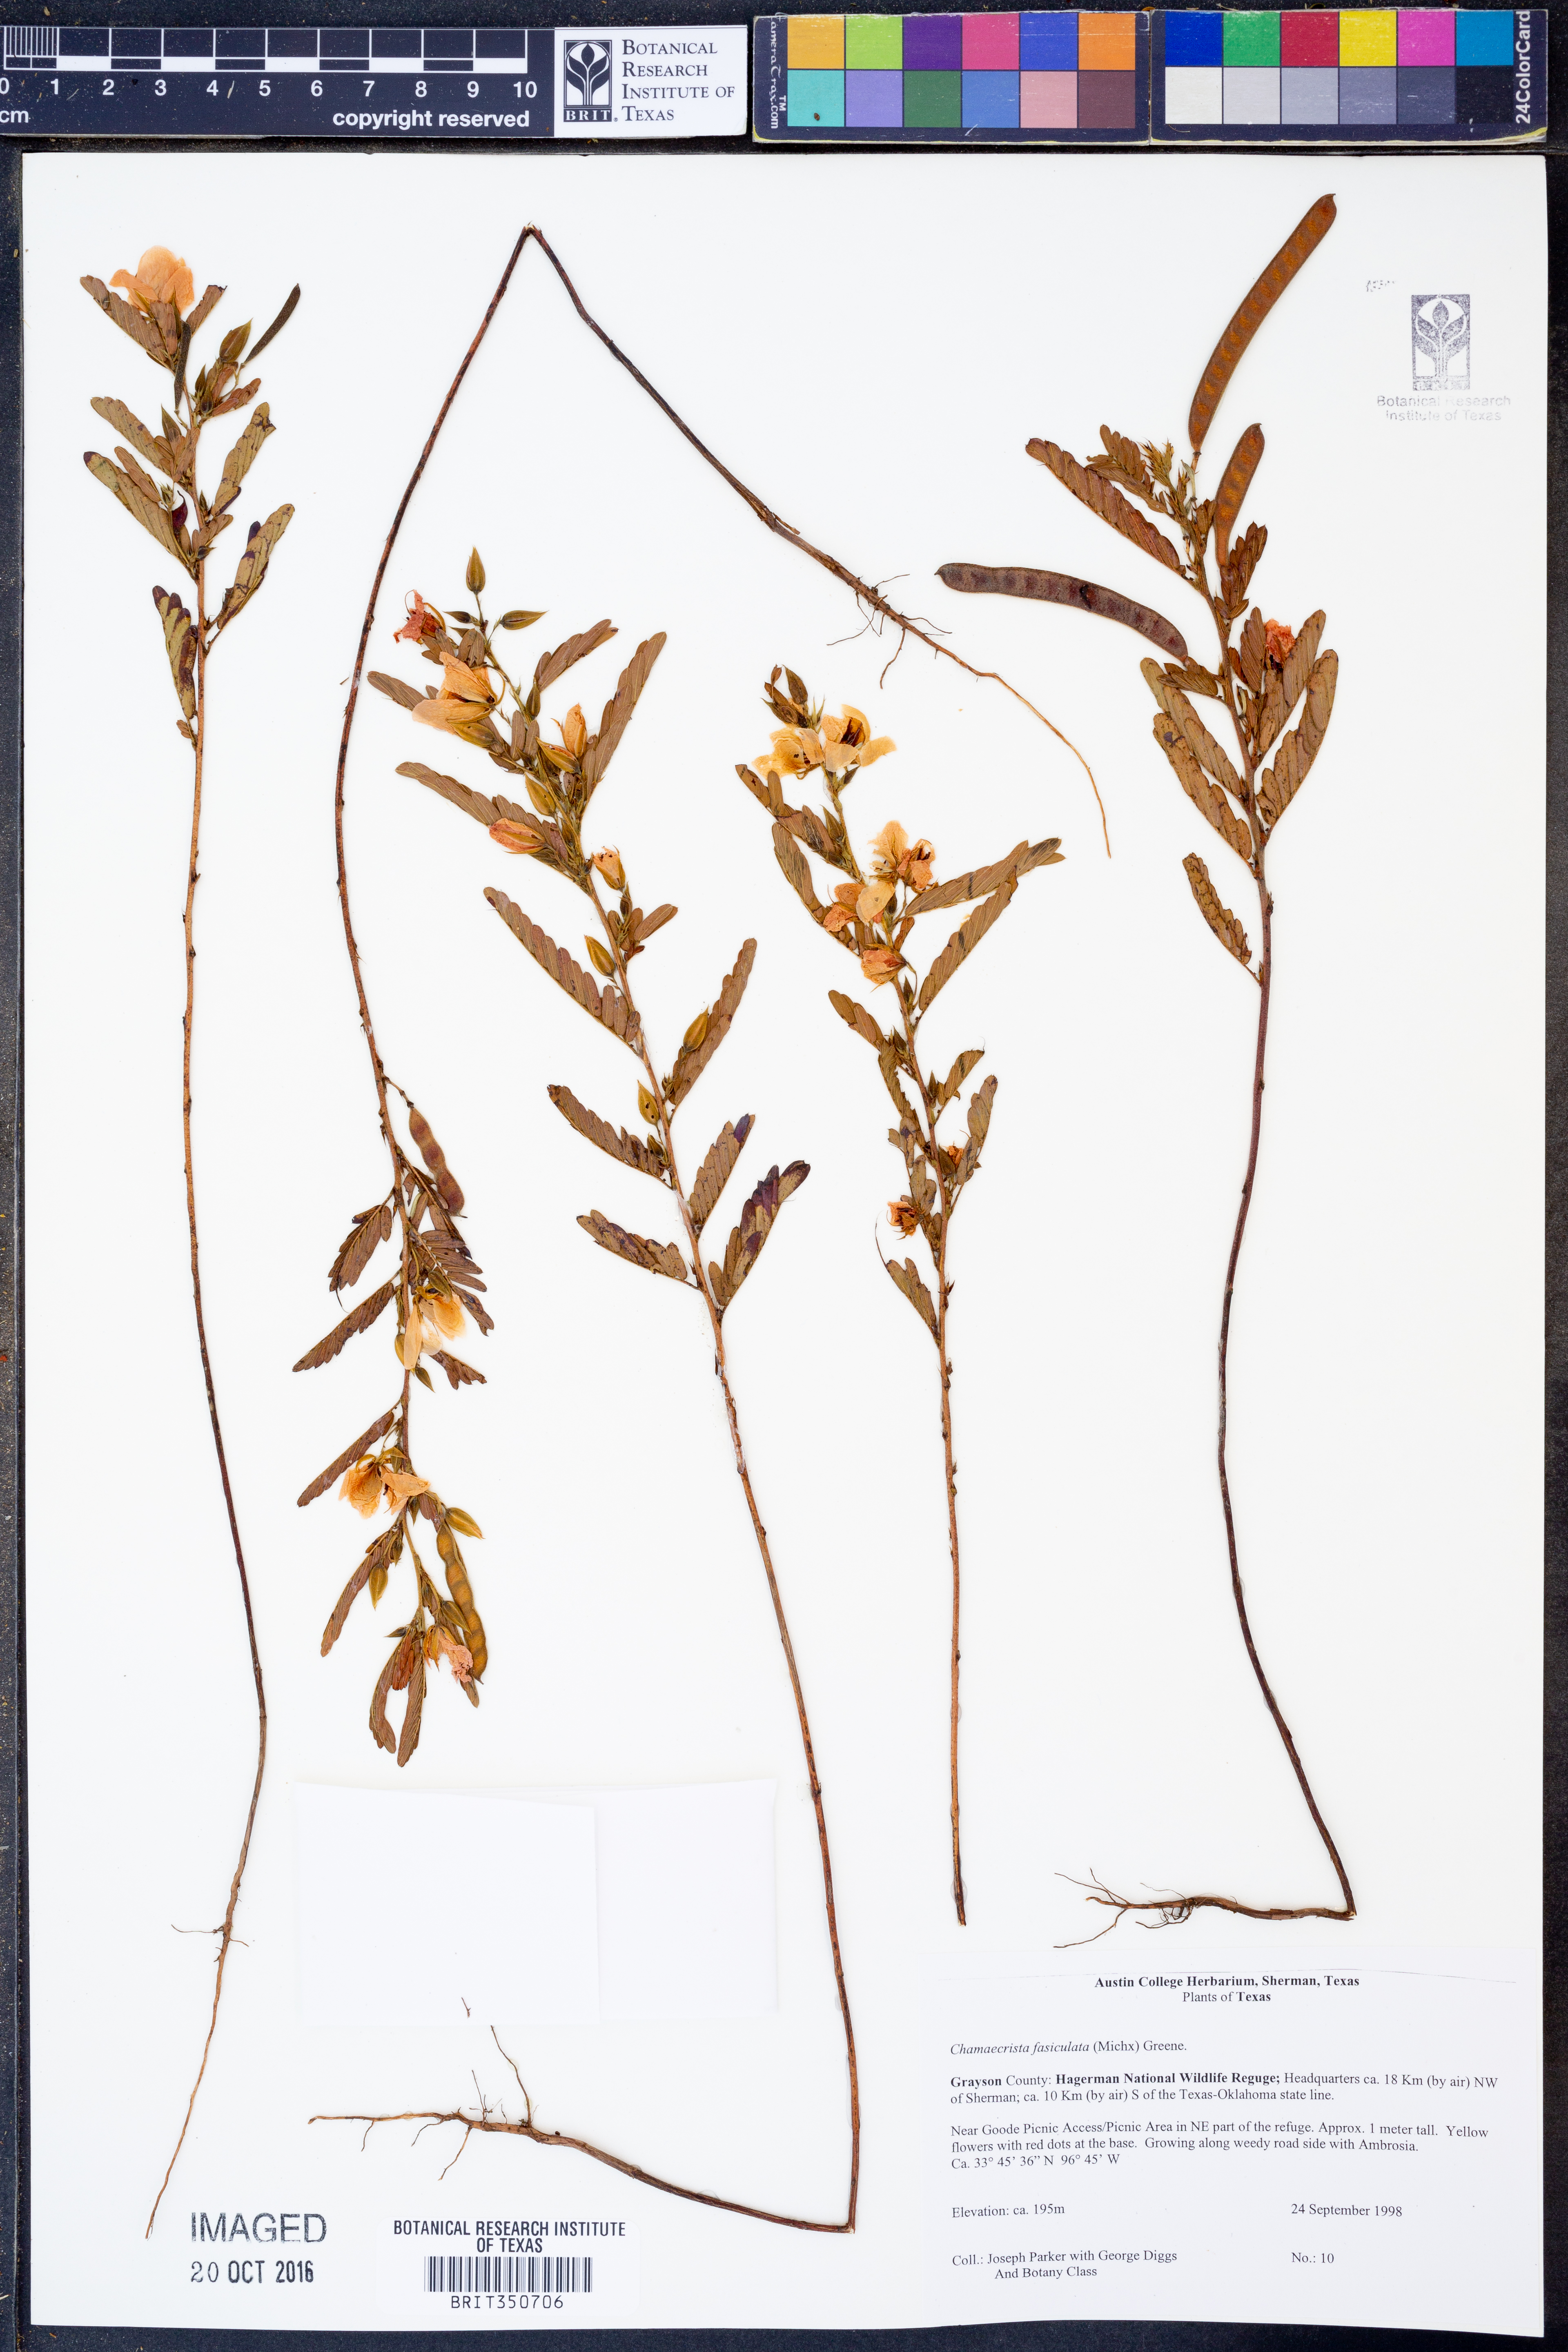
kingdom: Plantae
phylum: Tracheophyta
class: Magnoliopsida
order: Fabales
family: Fabaceae
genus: Chamaecrista
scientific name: Chamaecrista fasciculata
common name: Golden cassia
